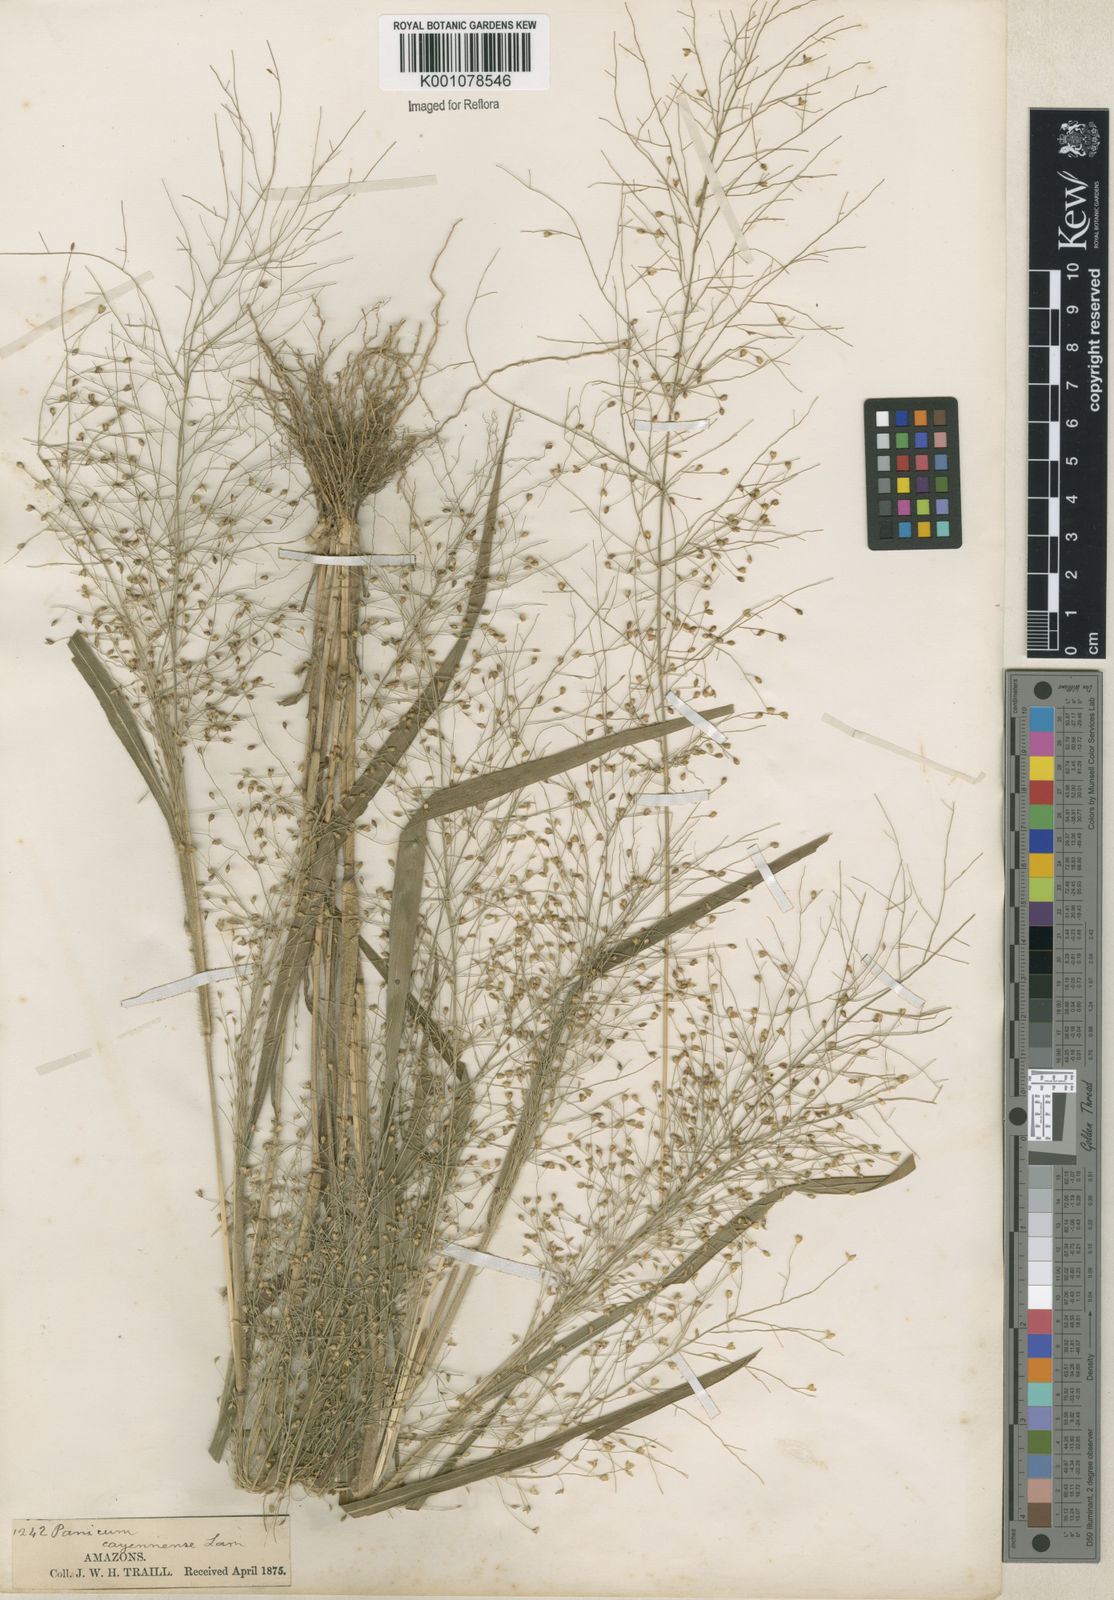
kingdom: Plantae
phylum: Tracheophyta
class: Liliopsida
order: Poales
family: Poaceae
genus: Panicum
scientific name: Panicum cayennense
